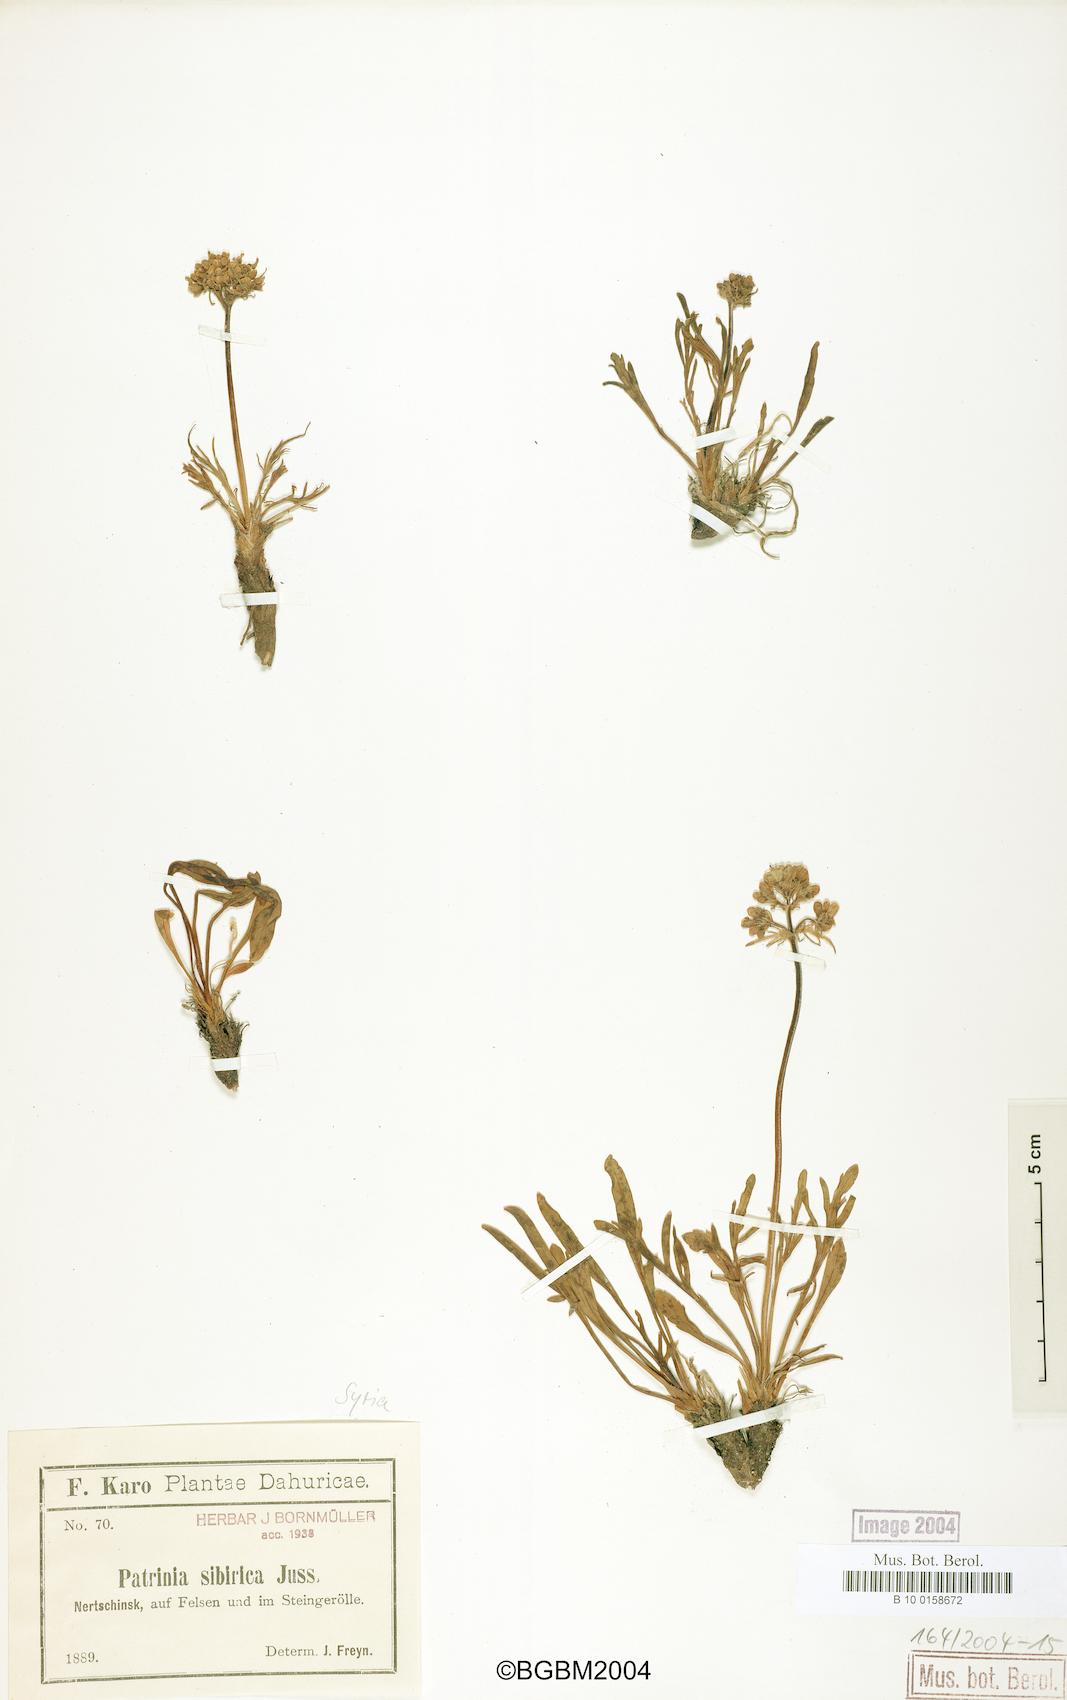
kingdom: Plantae
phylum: Tracheophyta
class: Magnoliopsida
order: Dipsacales
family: Caprifoliaceae
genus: Patrinia
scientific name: Patrinia sibirica
